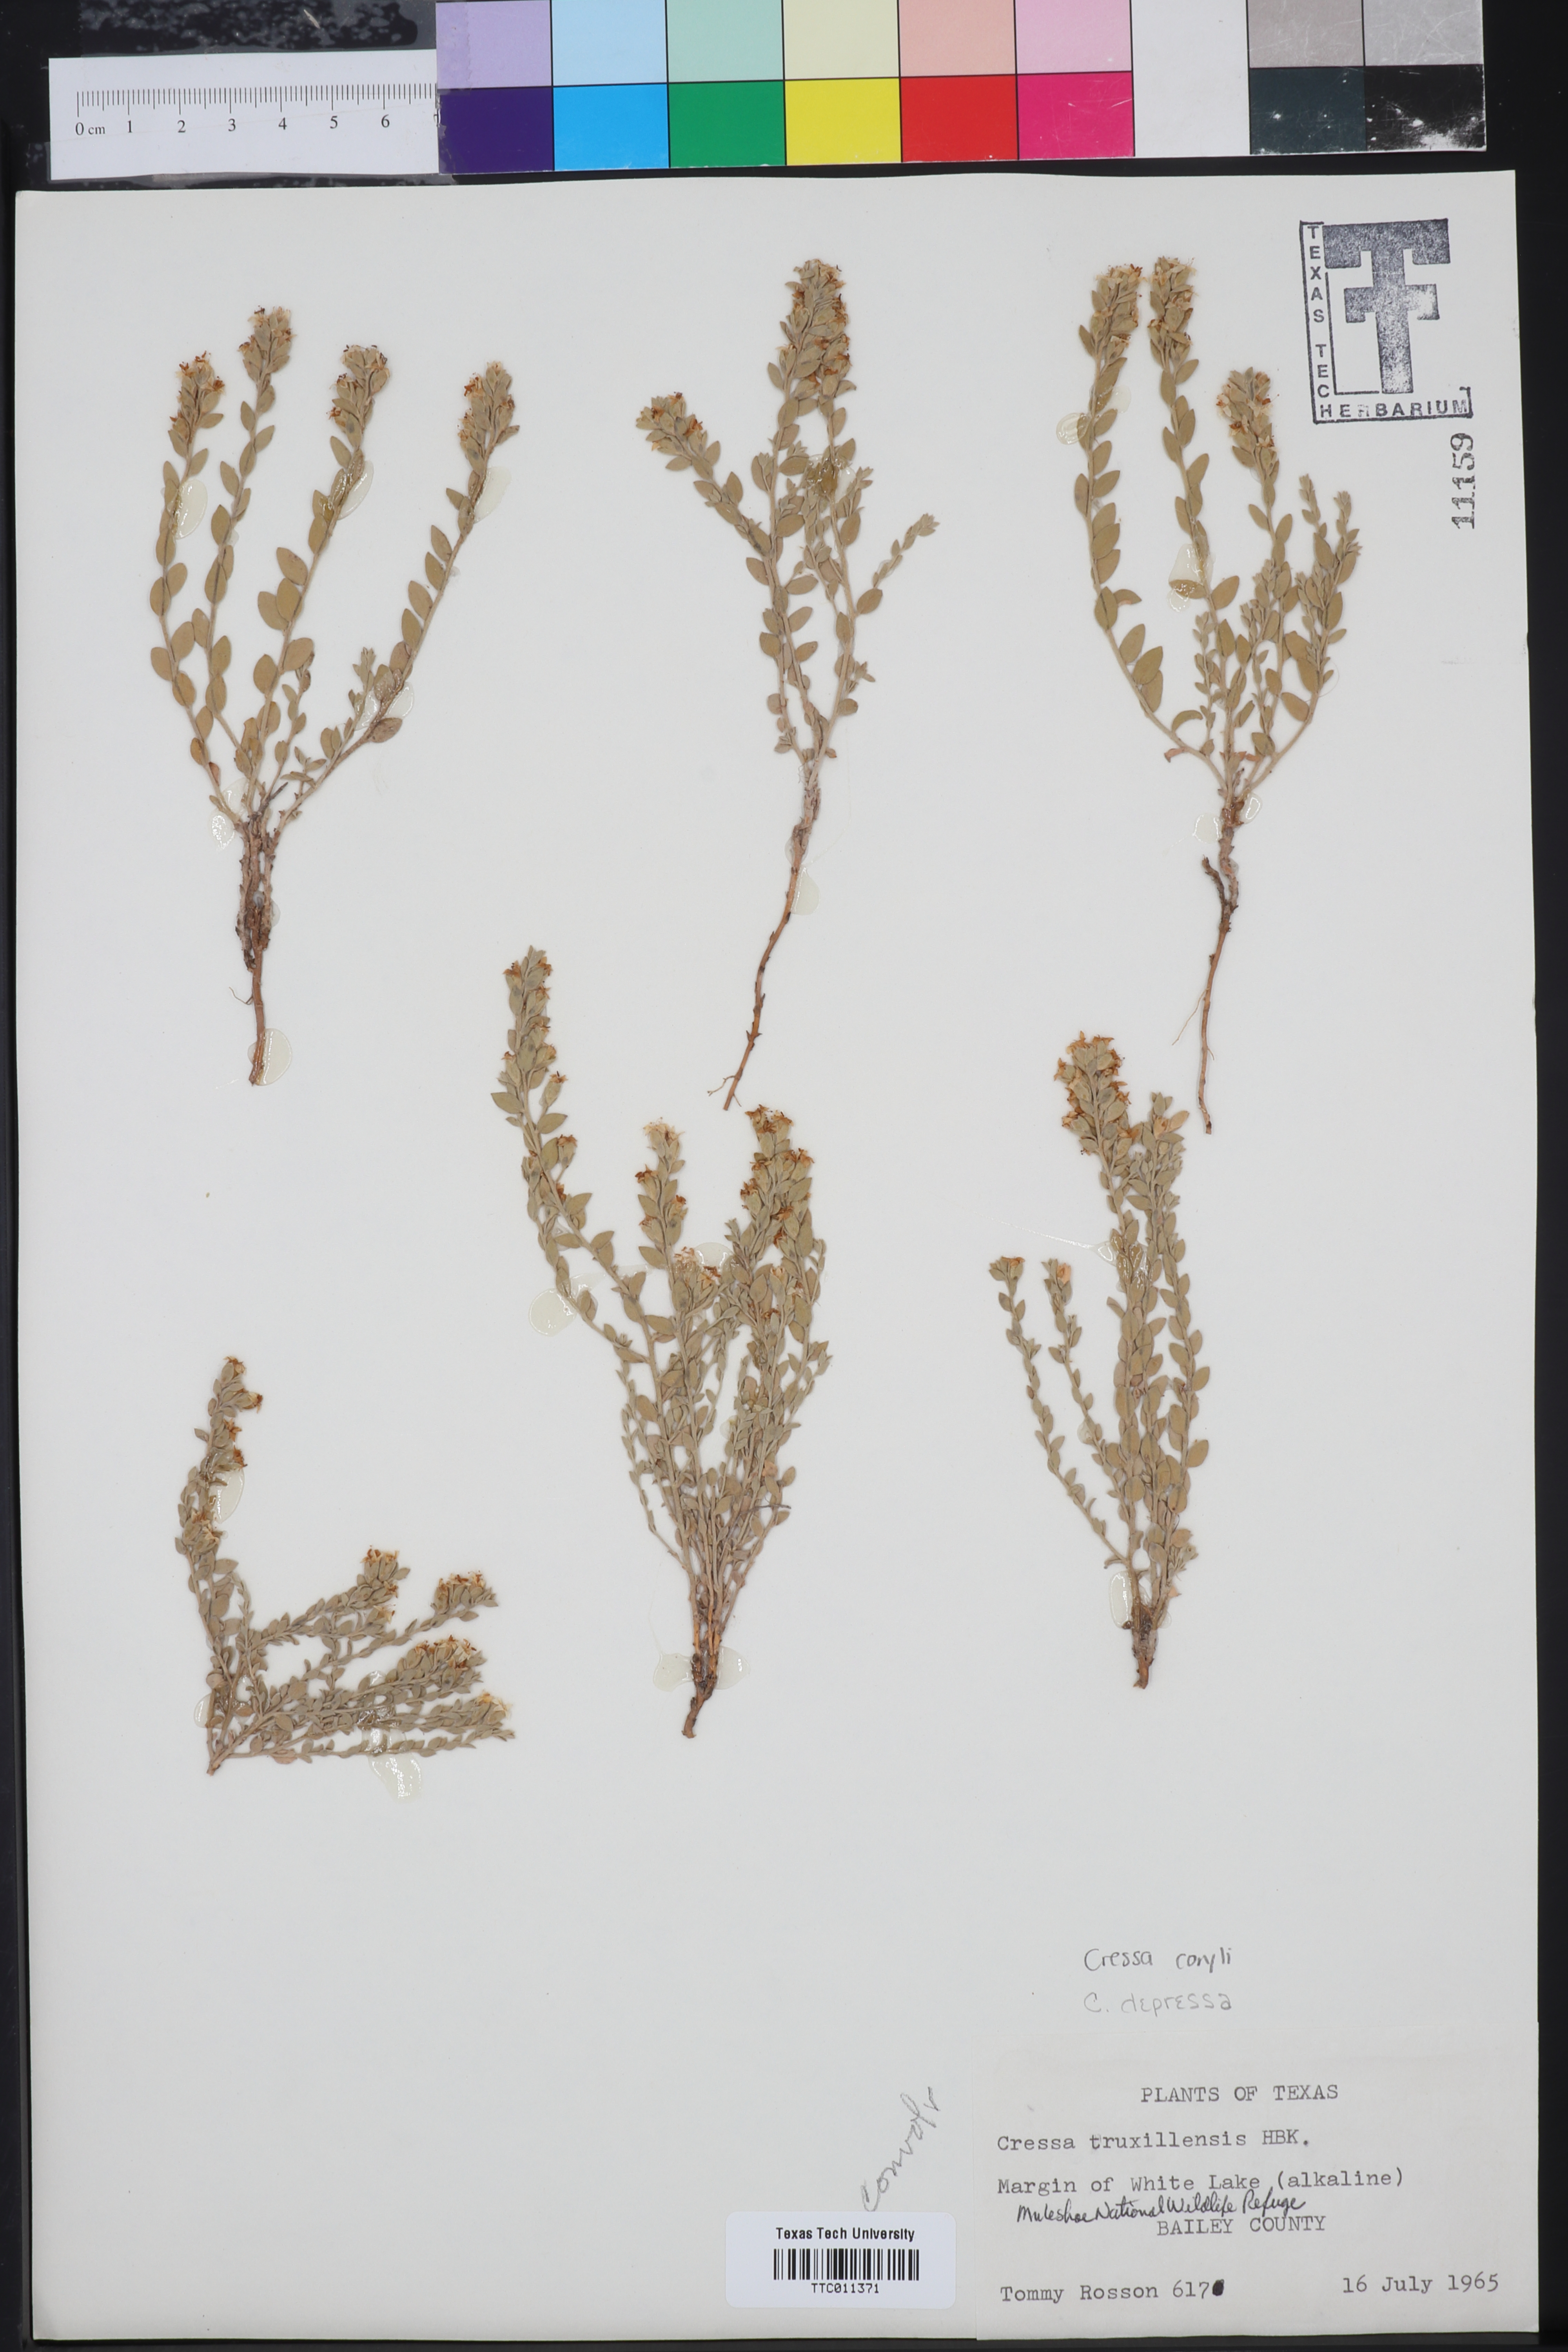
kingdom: Plantae
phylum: Tracheophyta
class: Magnoliopsida
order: Solanales
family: Convolvulaceae
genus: Cressa
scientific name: Cressa truxillensis
